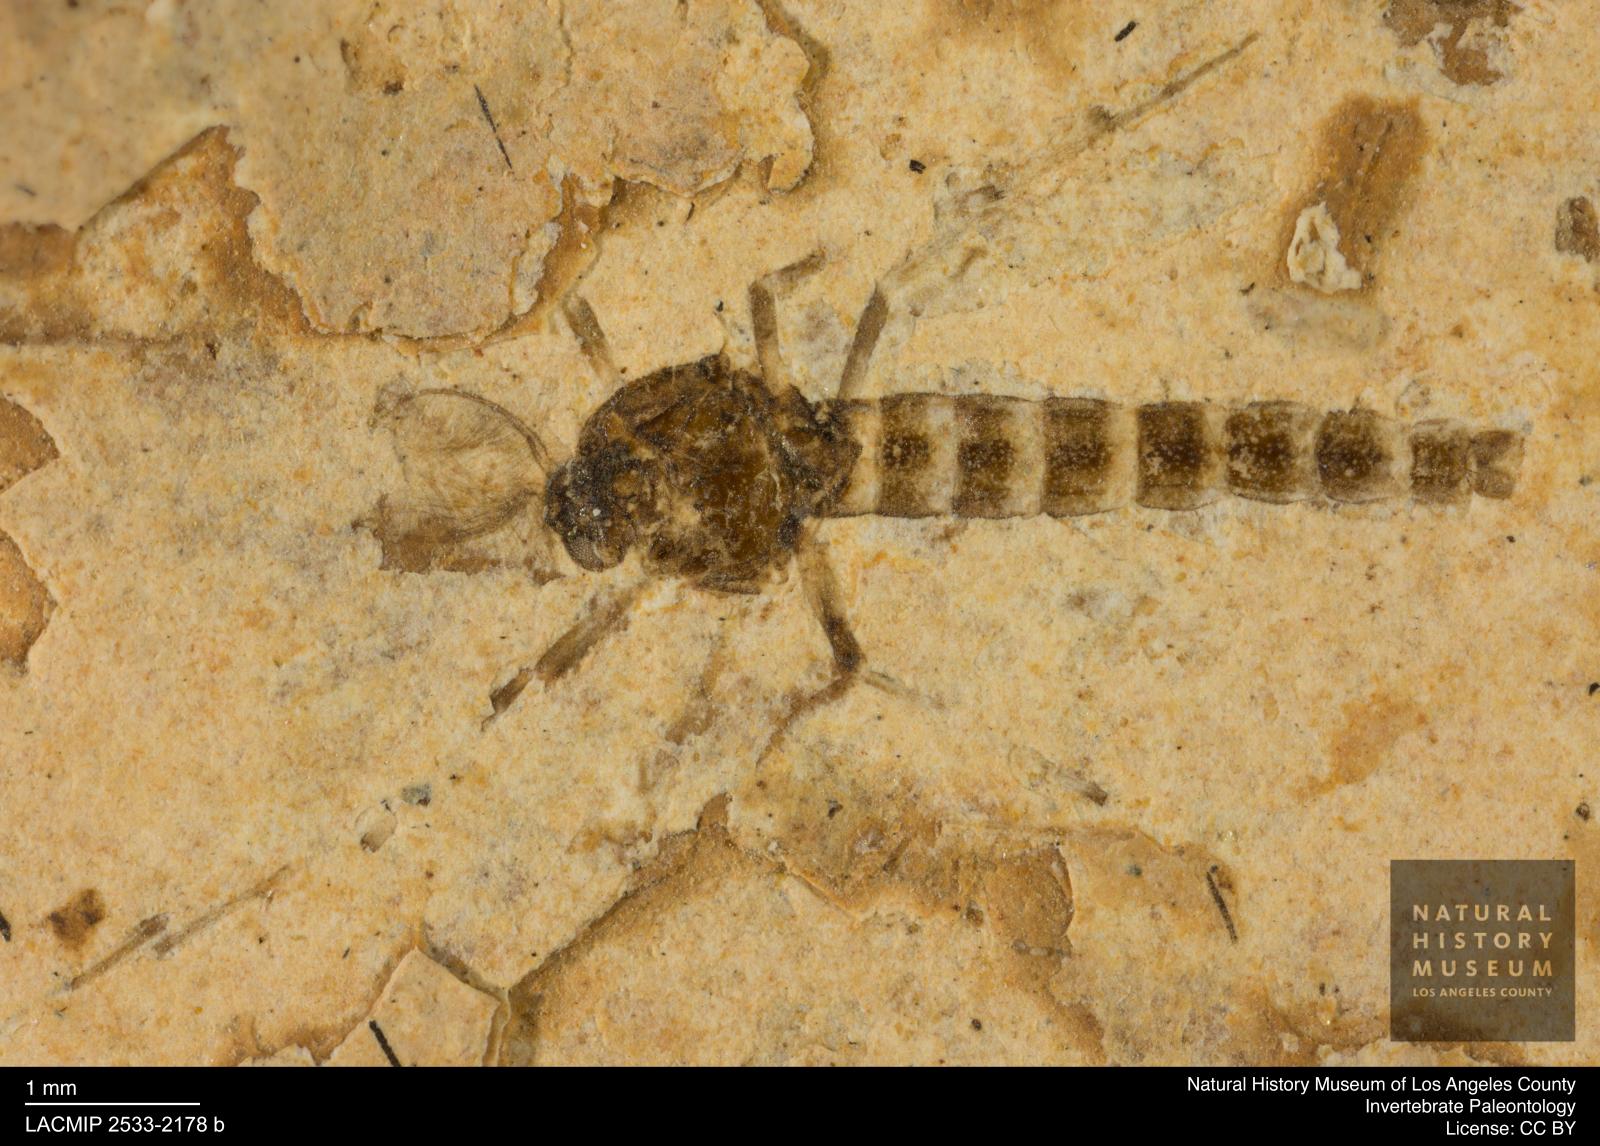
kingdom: Animalia
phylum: Arthropoda
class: Insecta
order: Diptera
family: Chironomidae
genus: Procladius
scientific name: Procladius
